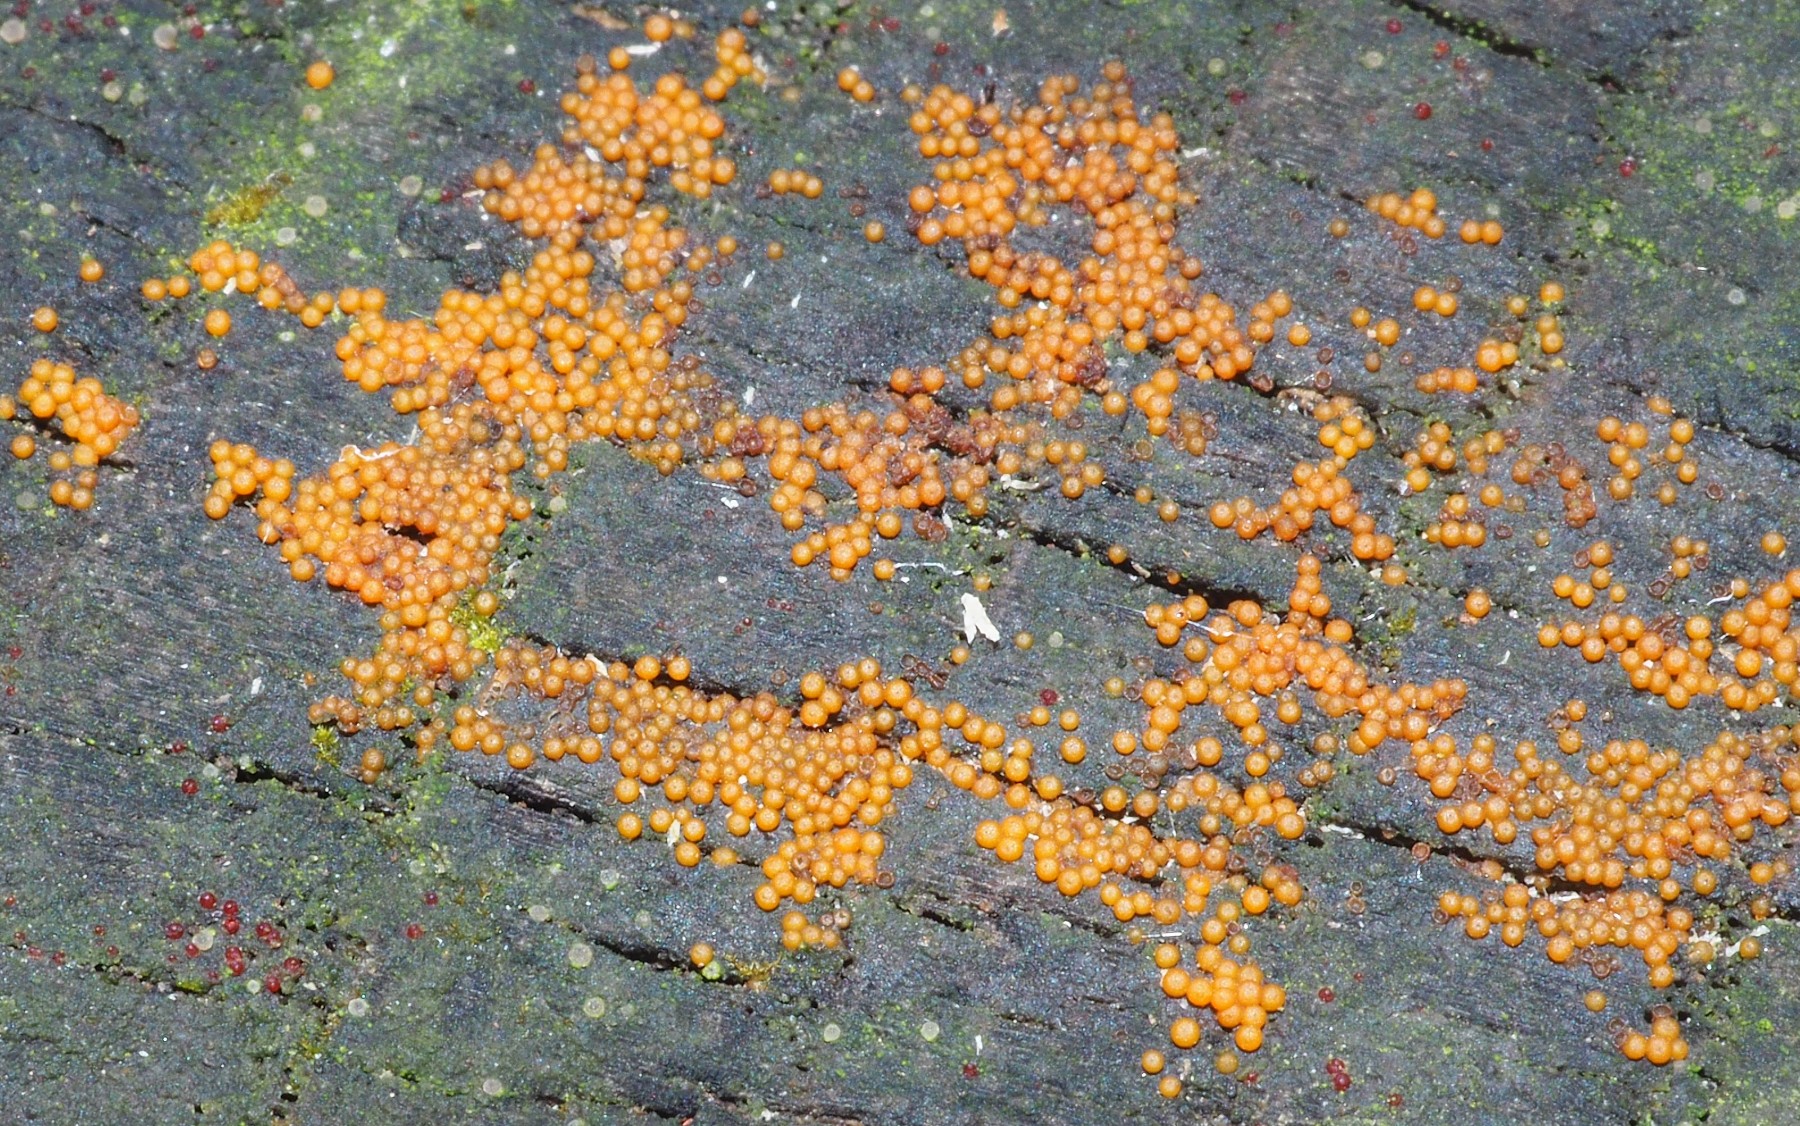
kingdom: Fungi
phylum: Ascomycota
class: Sordariomycetes
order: Hypocreales
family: Nectriaceae
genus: Hydropisphaera
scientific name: Hydropisphaera peziza
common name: skålformet gyldenkerne
